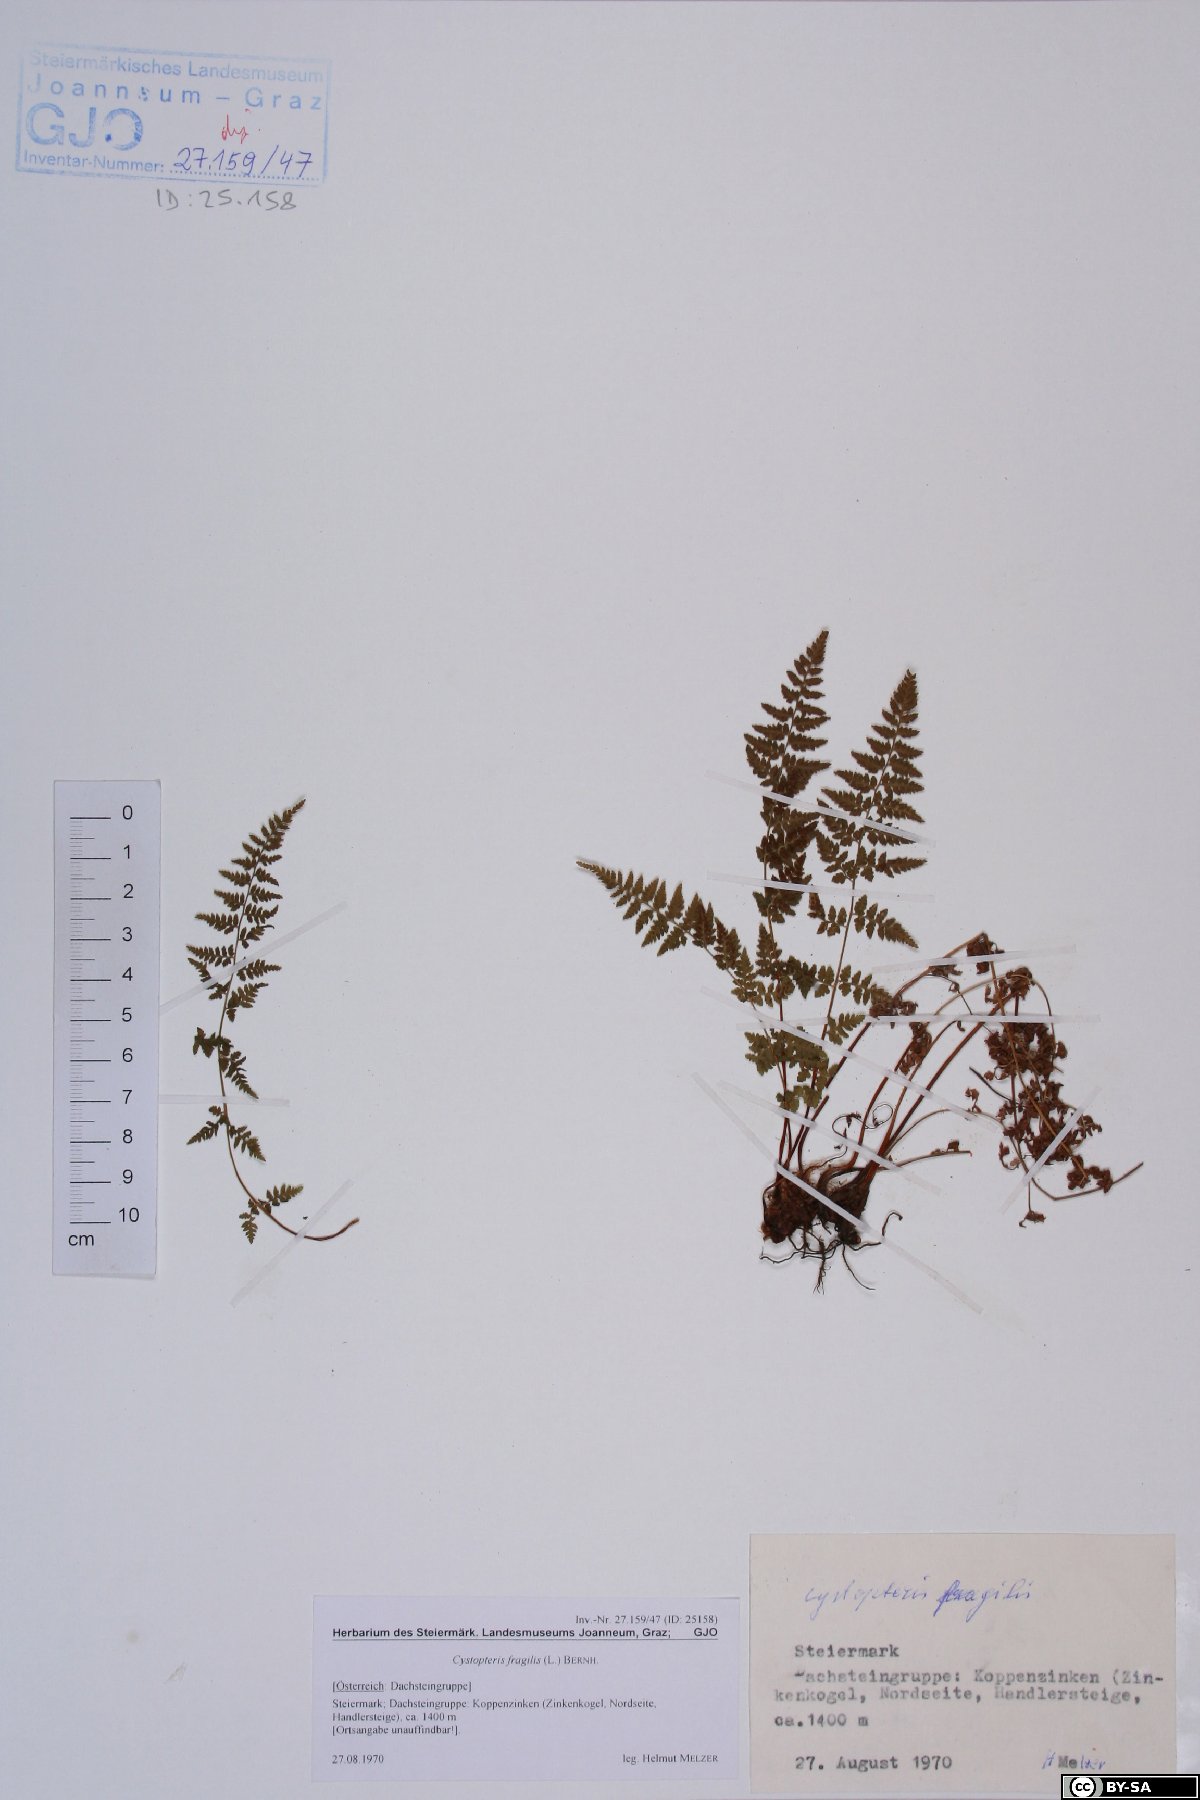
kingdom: Plantae
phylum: Tracheophyta
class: Polypodiopsida
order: Polypodiales
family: Cystopteridaceae
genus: Cystopteris
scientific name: Cystopteris fragilis
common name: Brittle bladder fern
